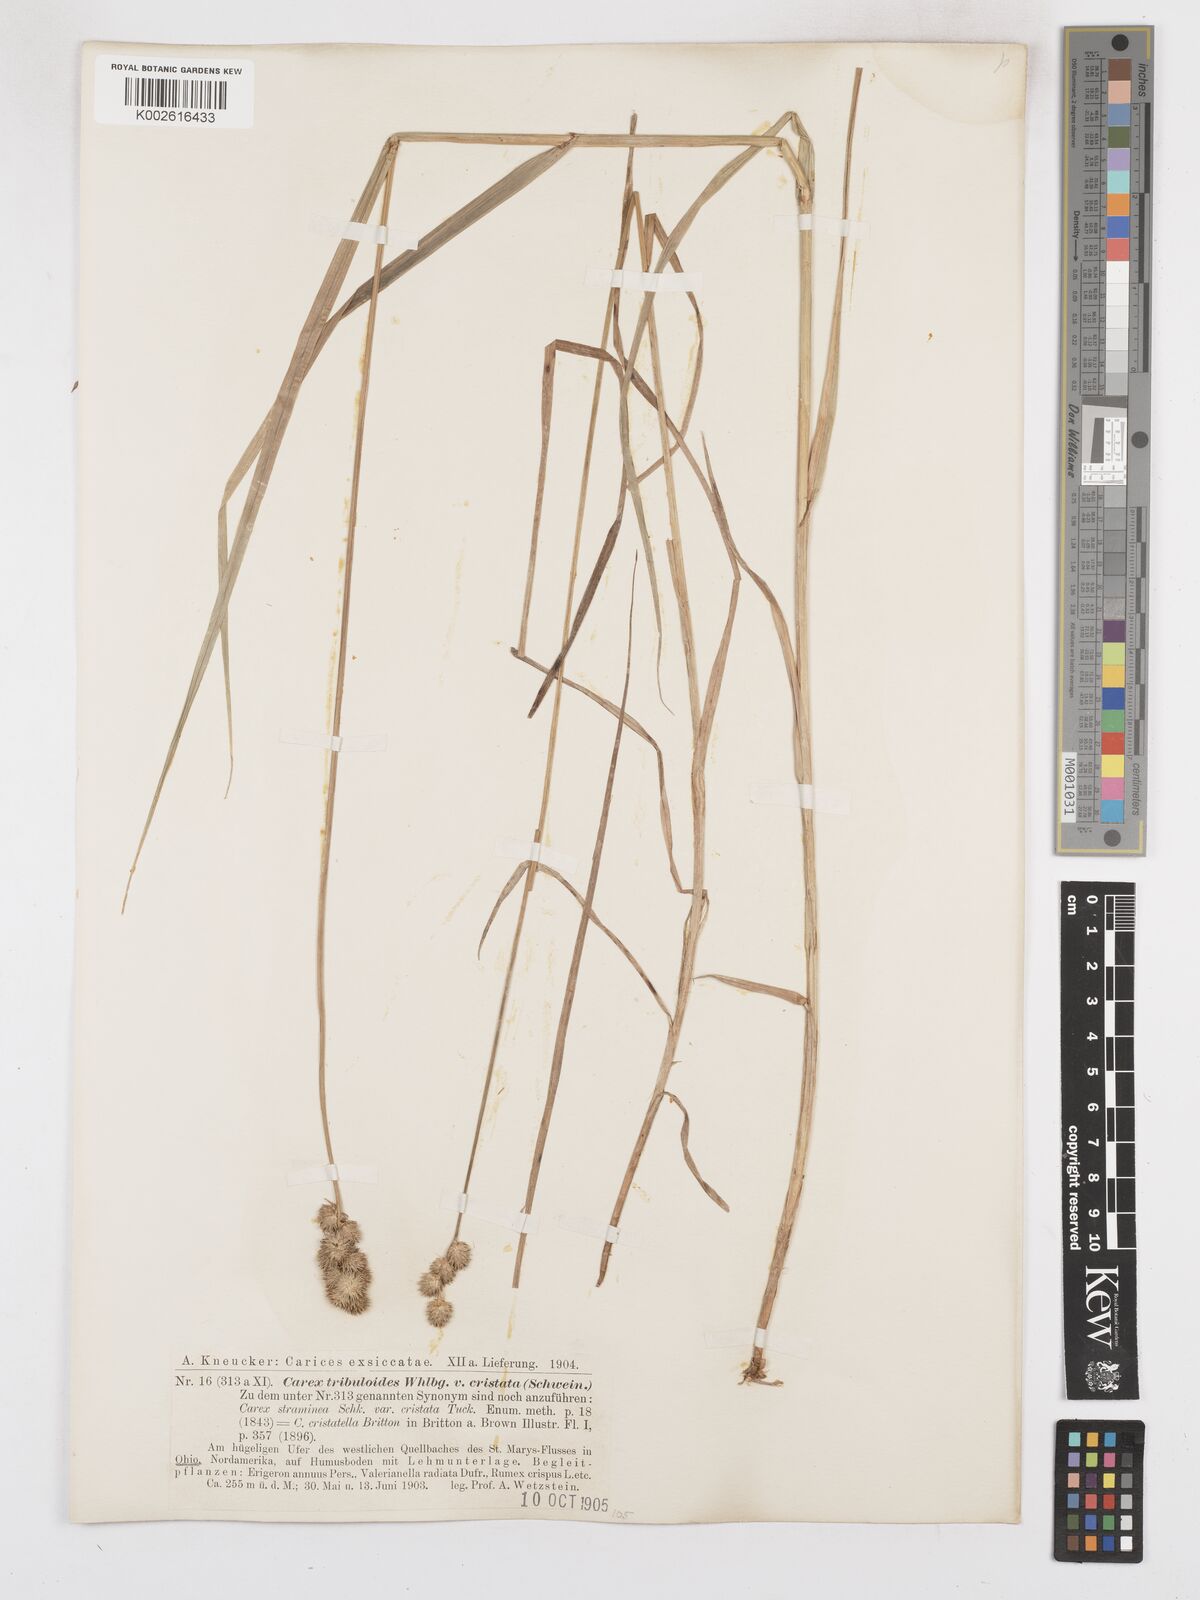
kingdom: Plantae
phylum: Tracheophyta
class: Liliopsida
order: Poales
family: Cyperaceae
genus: Carex
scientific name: Carex tribuloides
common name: Blunt broom sedge
